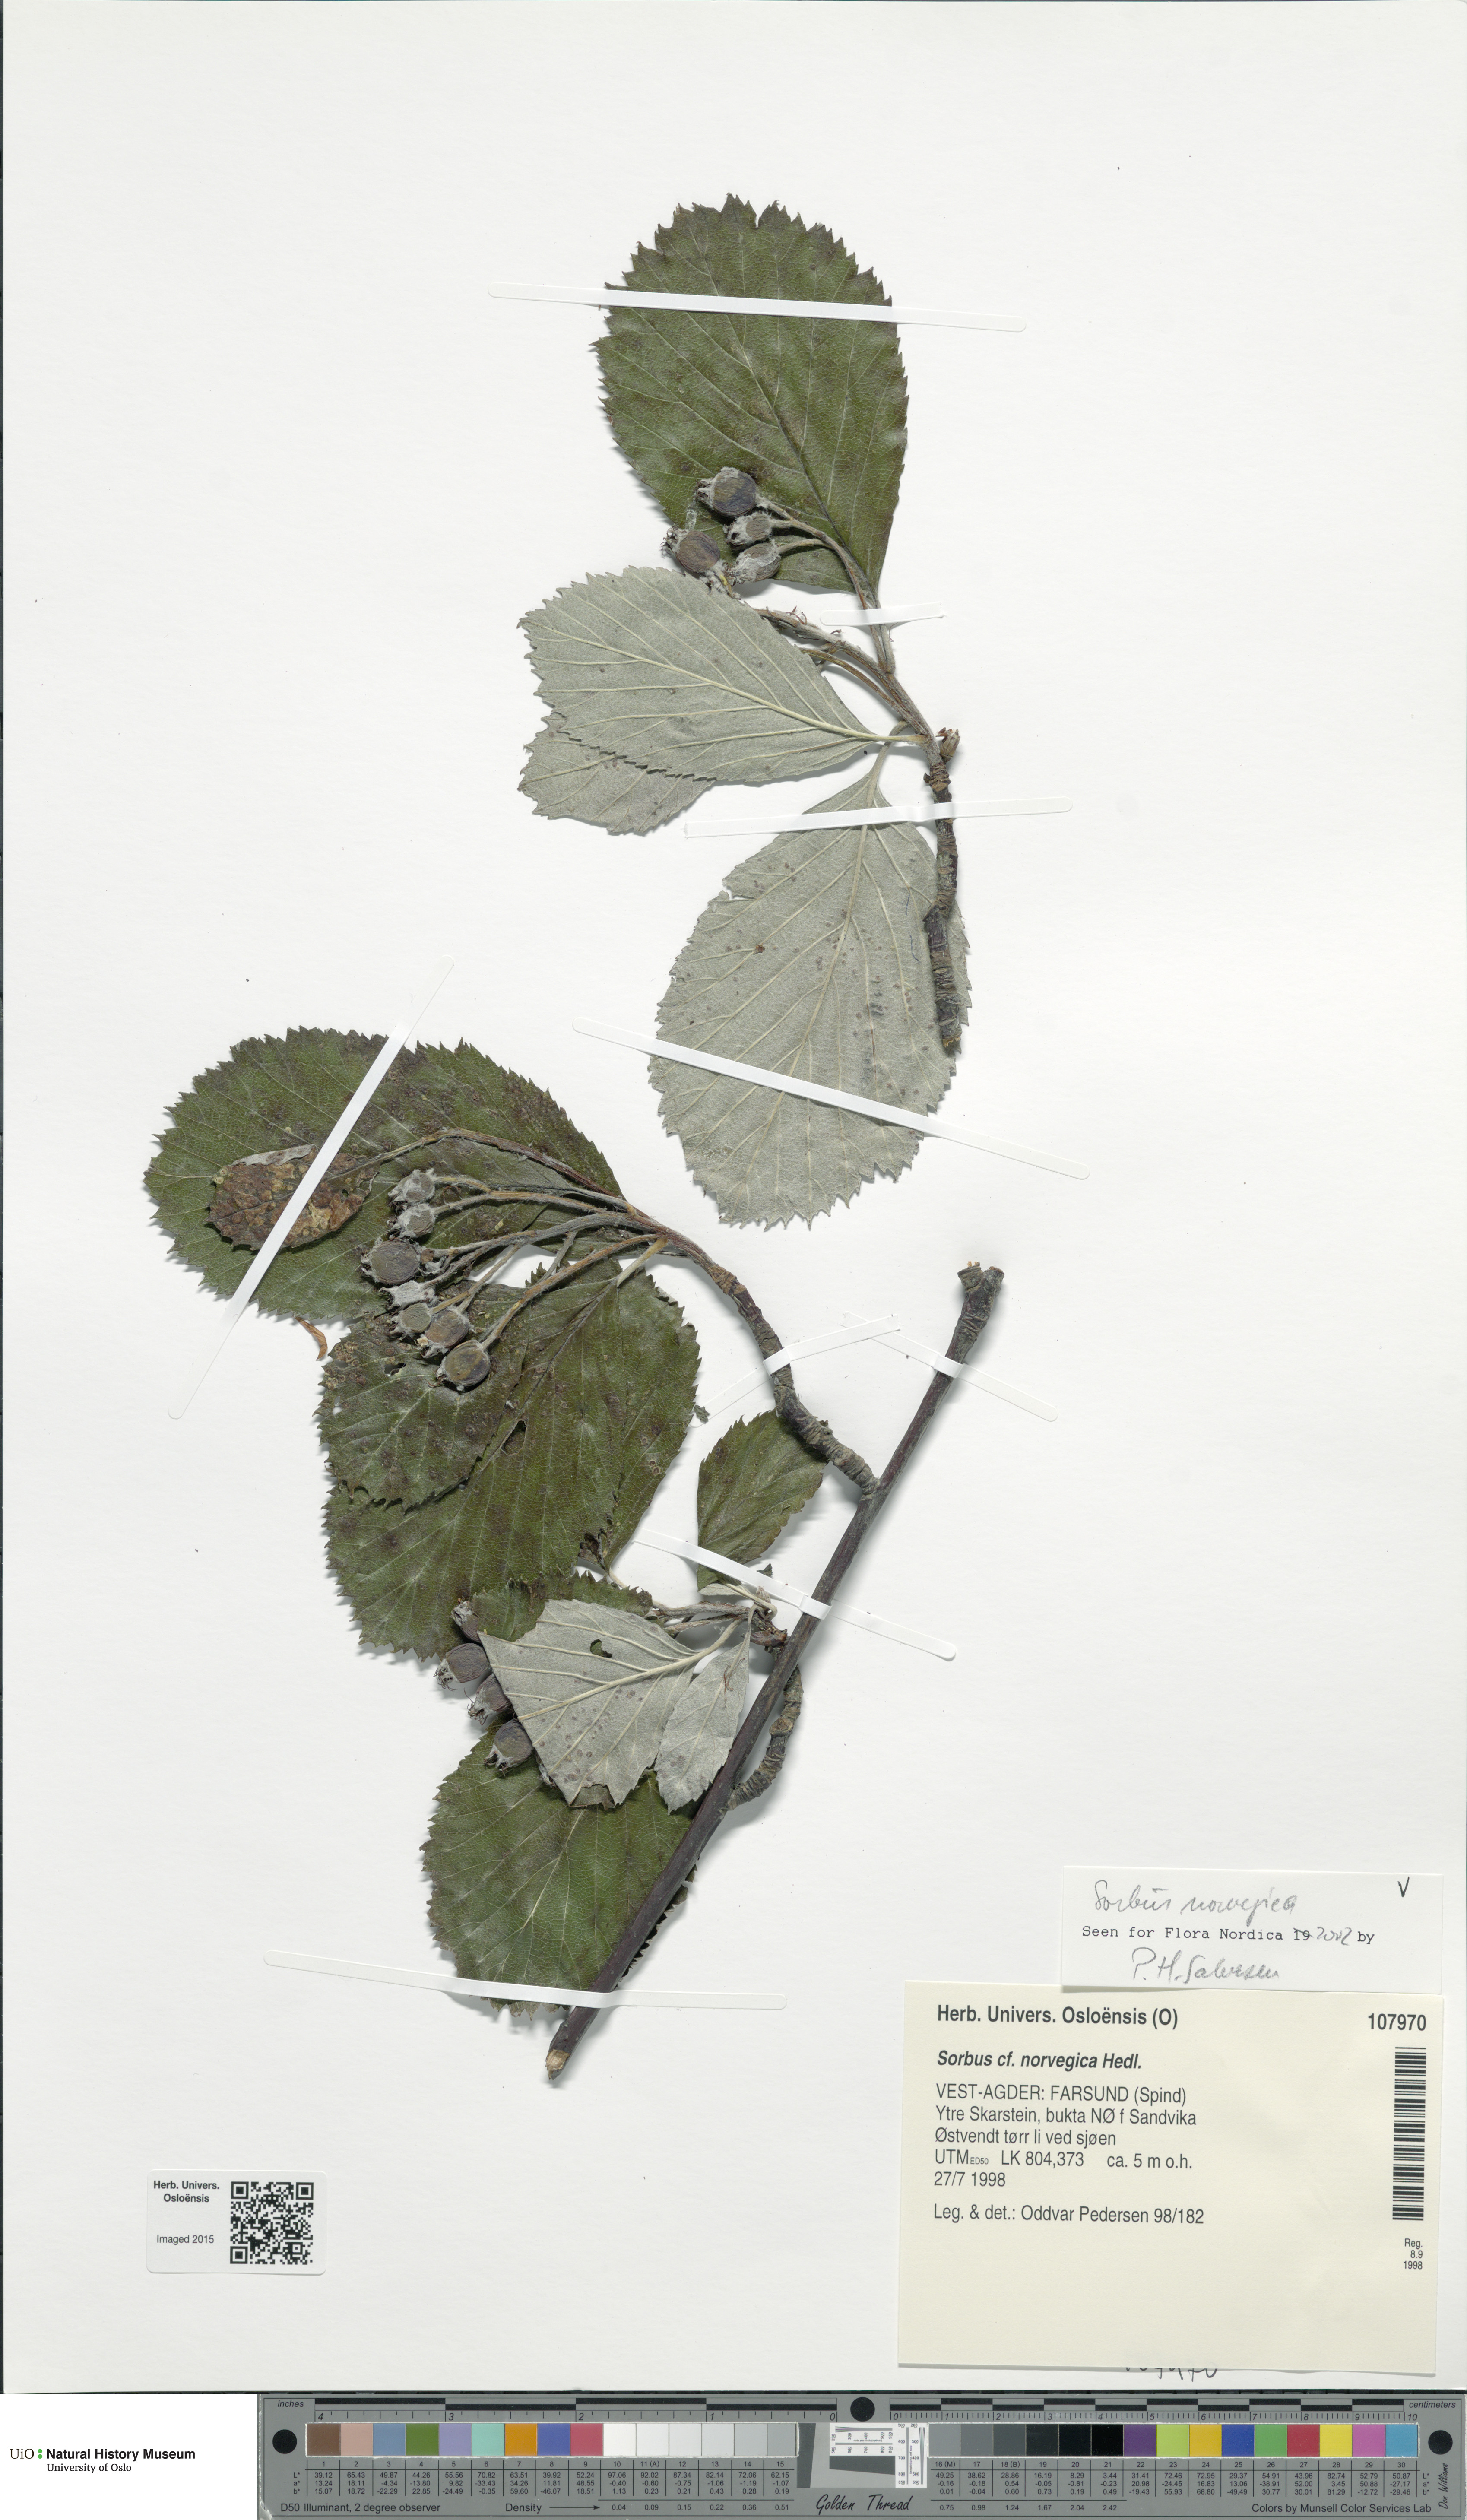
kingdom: Plantae
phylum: Tracheophyta
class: Magnoliopsida
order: Rosales
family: Rosaceae
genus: Aria
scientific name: Aria obtusifolia
